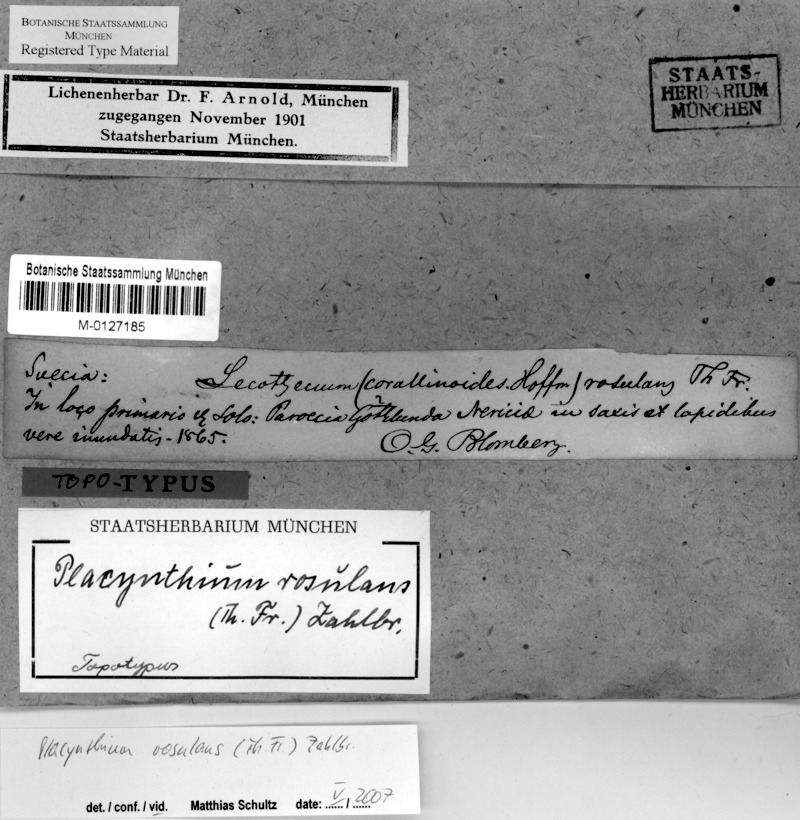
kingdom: Fungi
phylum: Ascomycota
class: Lecanoromycetes
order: Peltigerales
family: Placynthiaceae
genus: Placynthium
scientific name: Placynthium rosulans
